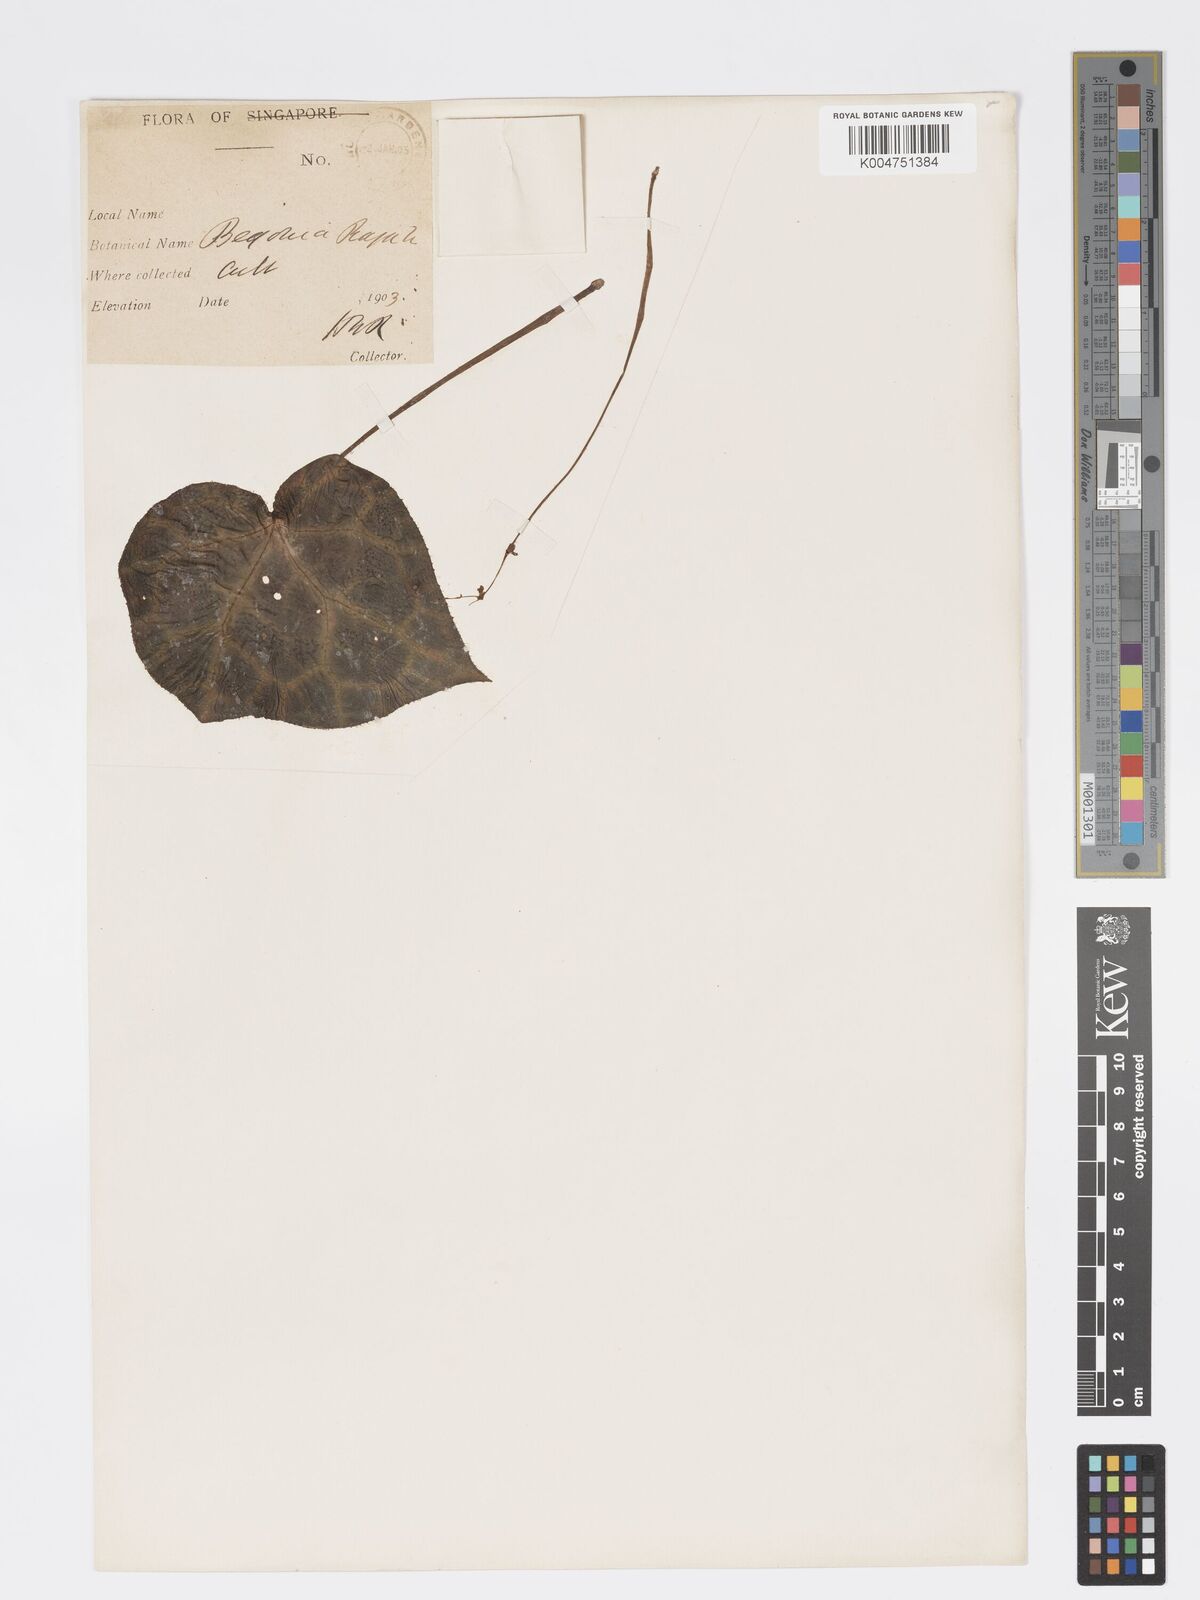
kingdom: Plantae
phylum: Tracheophyta
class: Magnoliopsida
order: Cucurbitales
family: Begoniaceae
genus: Begonia
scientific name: Begonia rajah
